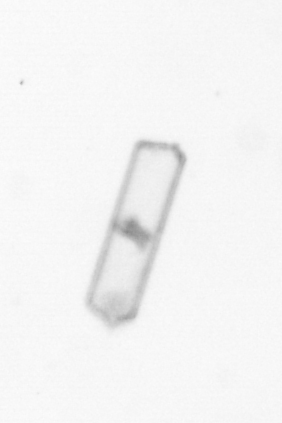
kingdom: Chromista
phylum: Ochrophyta
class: Bacillariophyceae
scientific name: Bacillariophyceae
